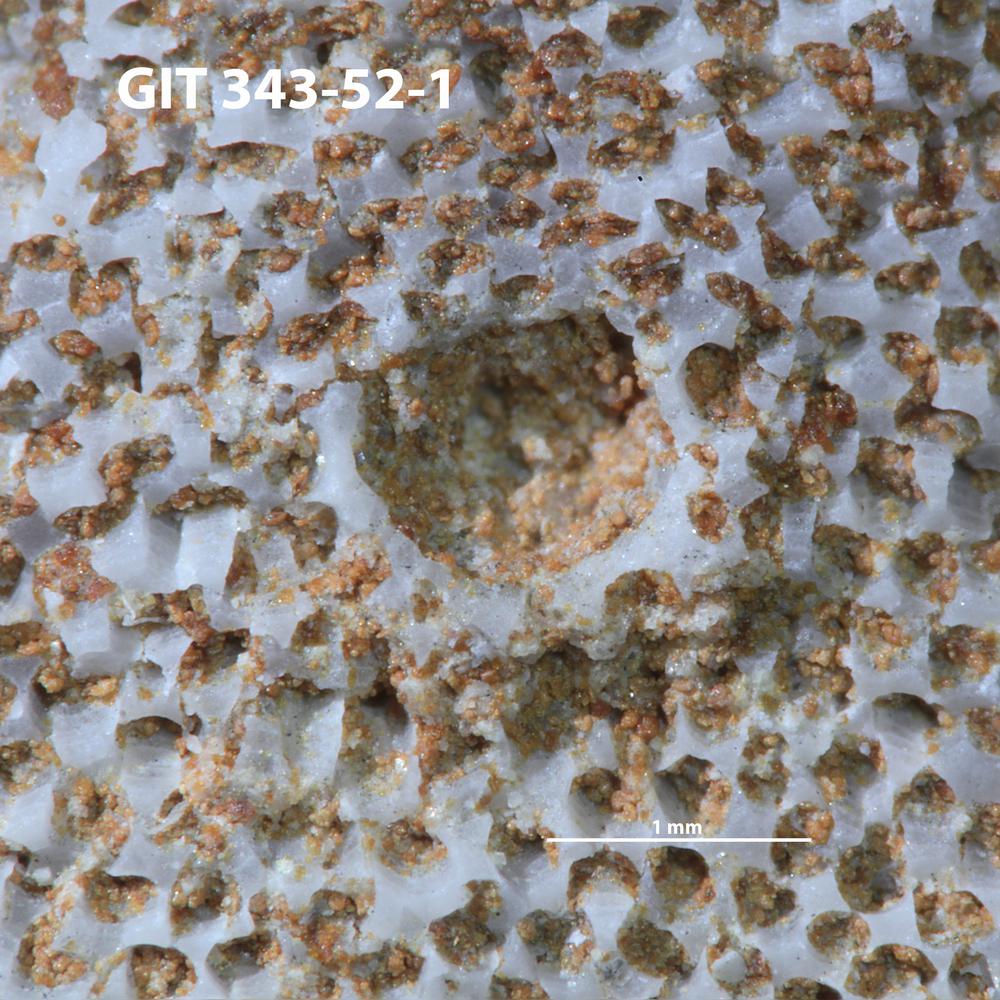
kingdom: Animalia
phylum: Annelida
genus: Anoigmaichnus
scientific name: Anoigmaichnus
